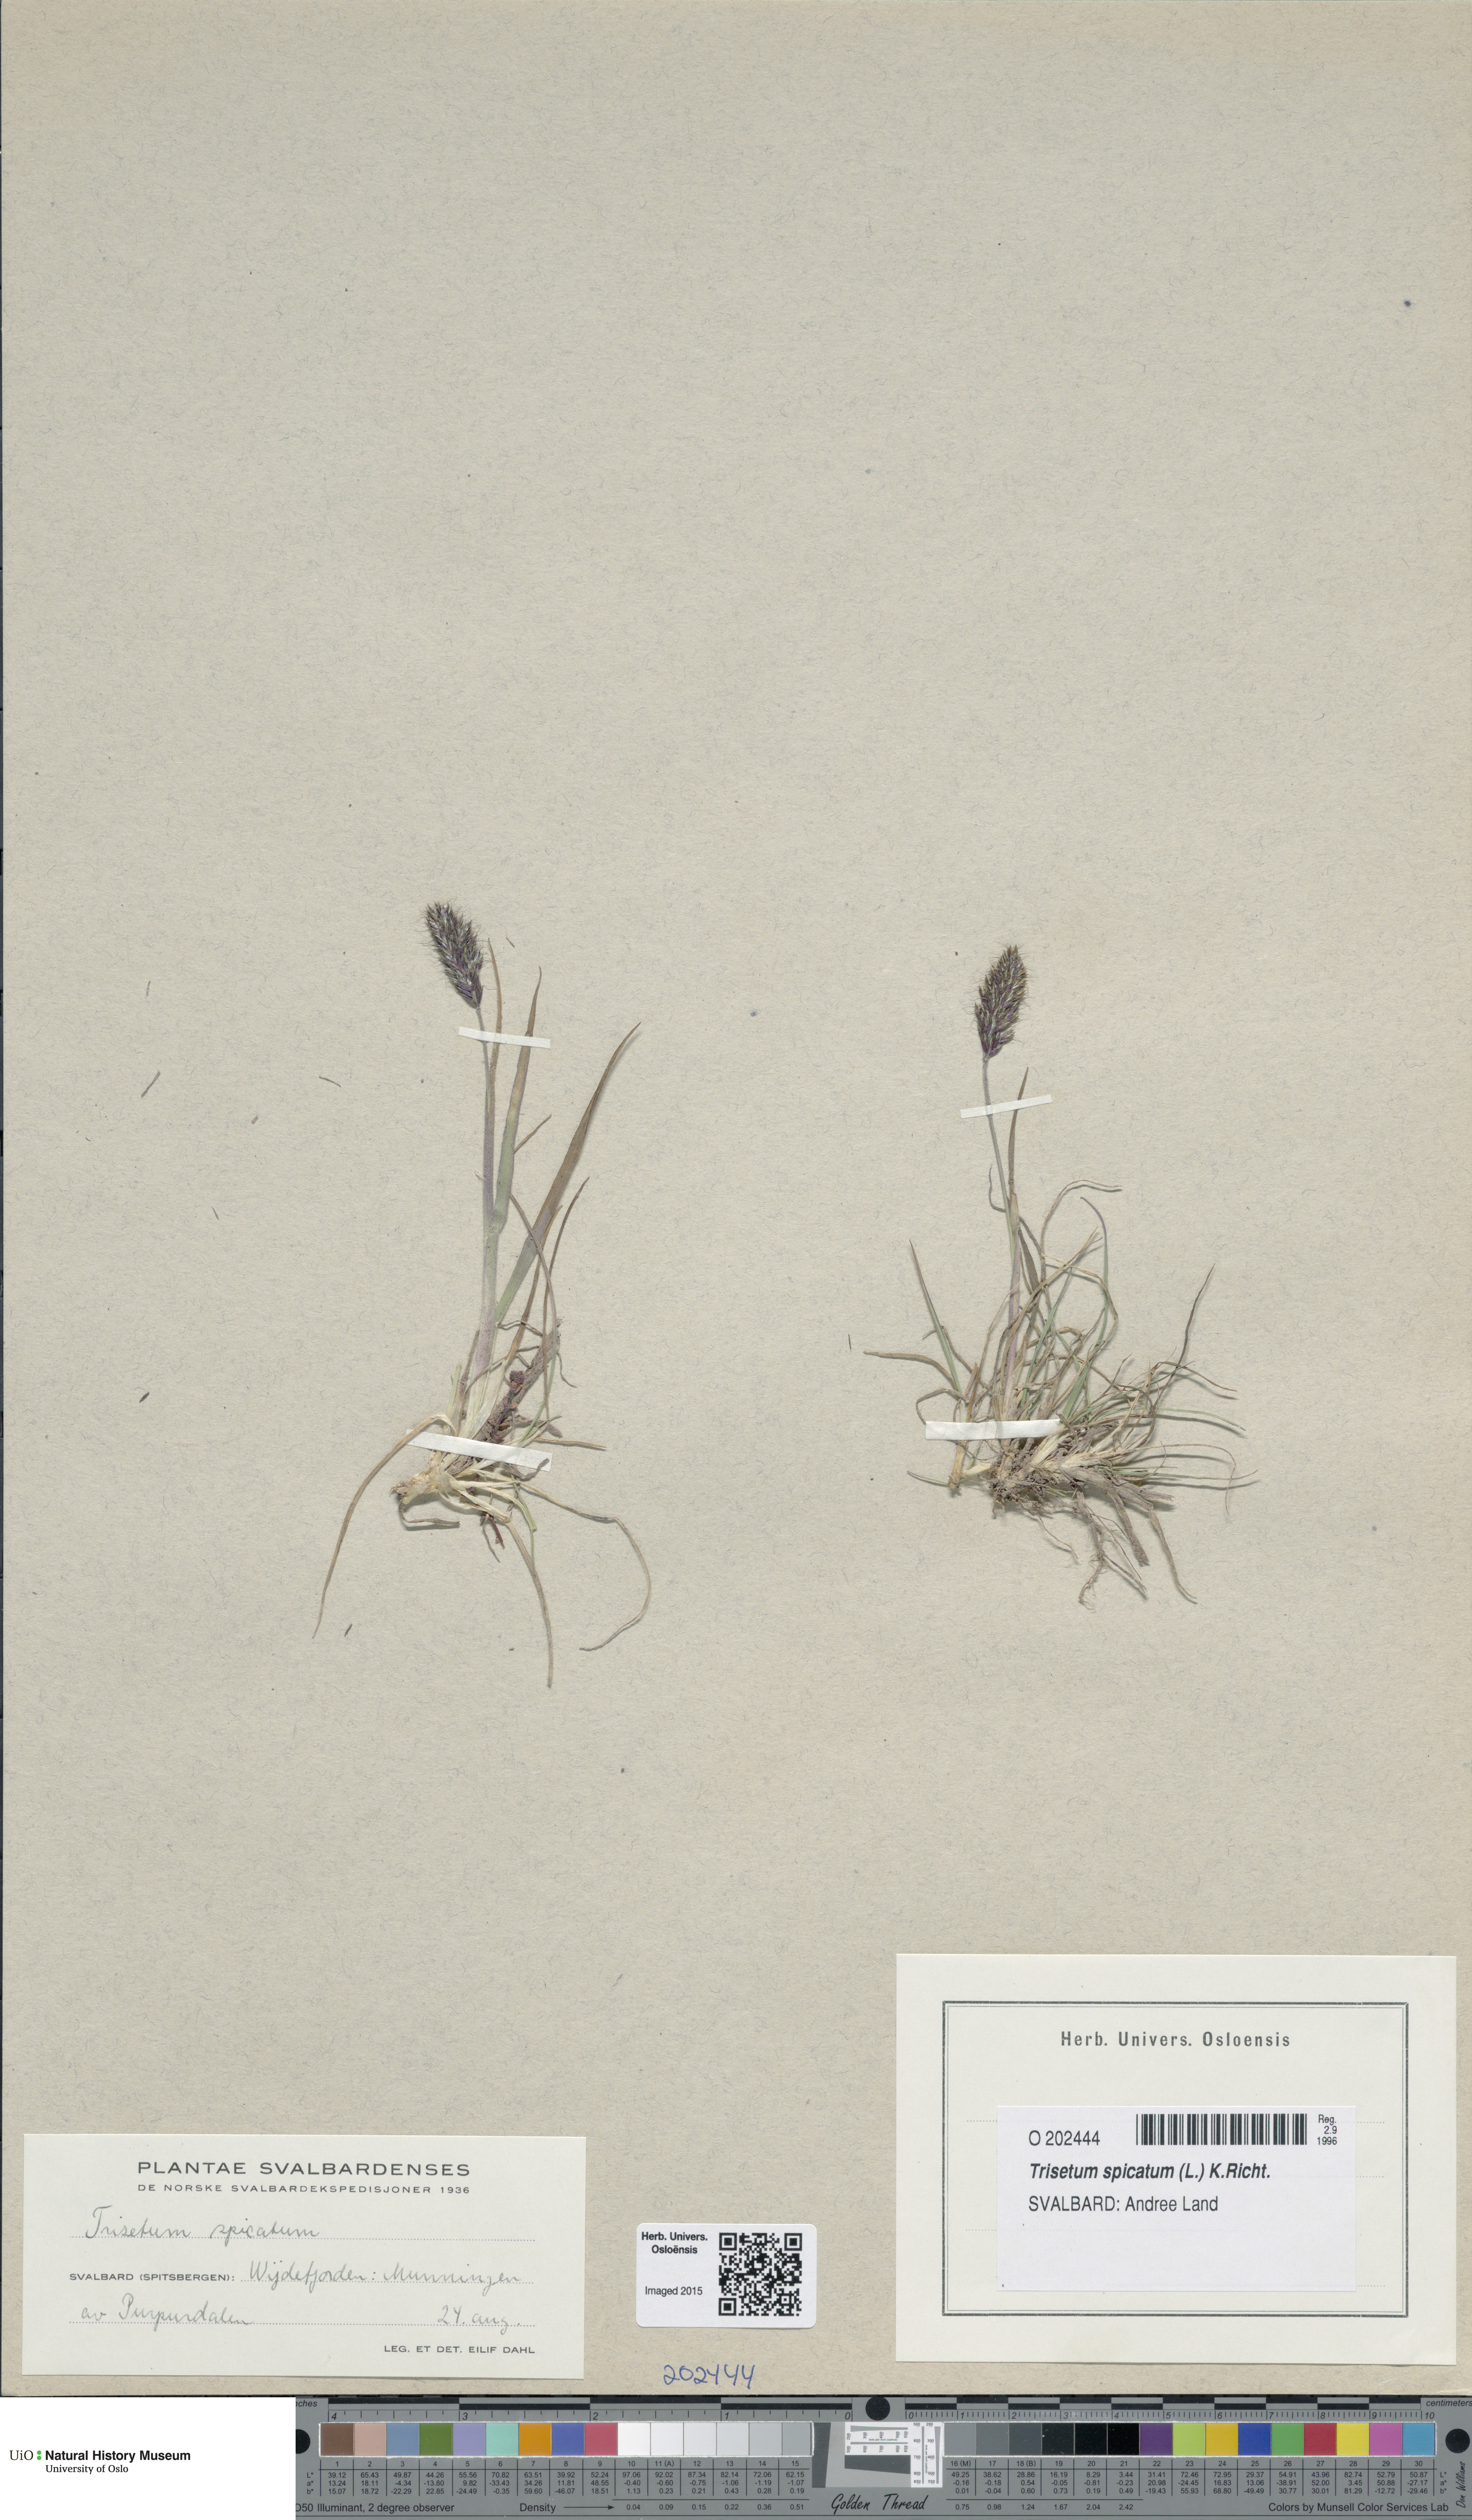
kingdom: Plantae
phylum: Tracheophyta
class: Liliopsida
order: Poales
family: Poaceae
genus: Koeleria
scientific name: Koeleria spicata
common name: Mountain trisetum
